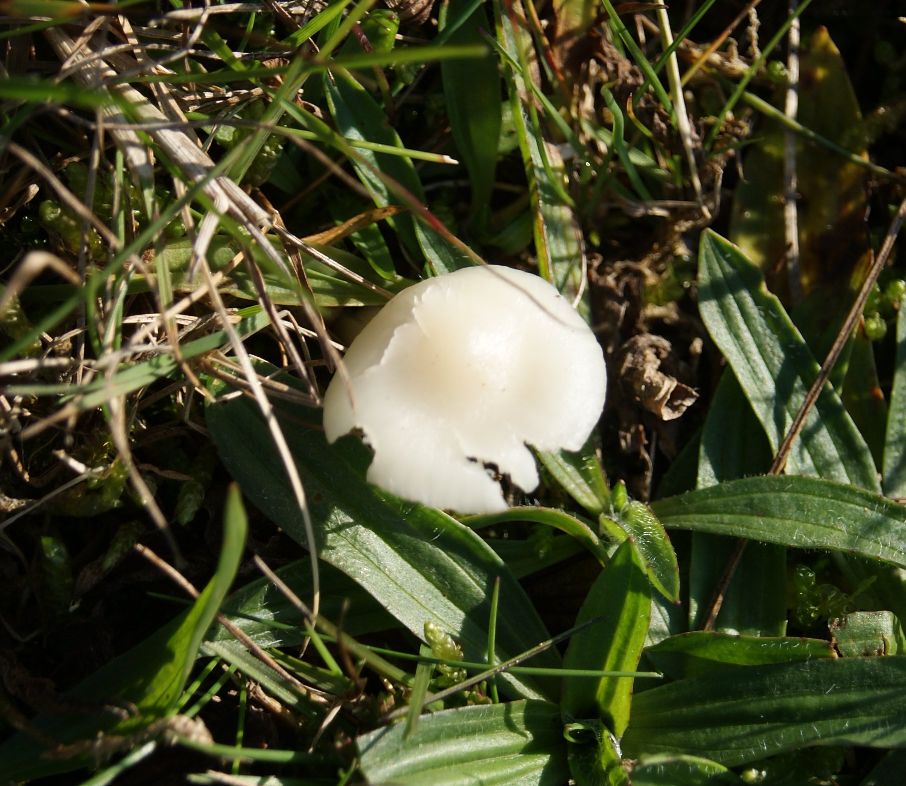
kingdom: Fungi
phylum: Basidiomycota
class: Agaricomycetes
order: Agaricales
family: Hygrophoraceae
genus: Cuphophyllus
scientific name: Cuphophyllus virgineus
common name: snehvid vokshat
